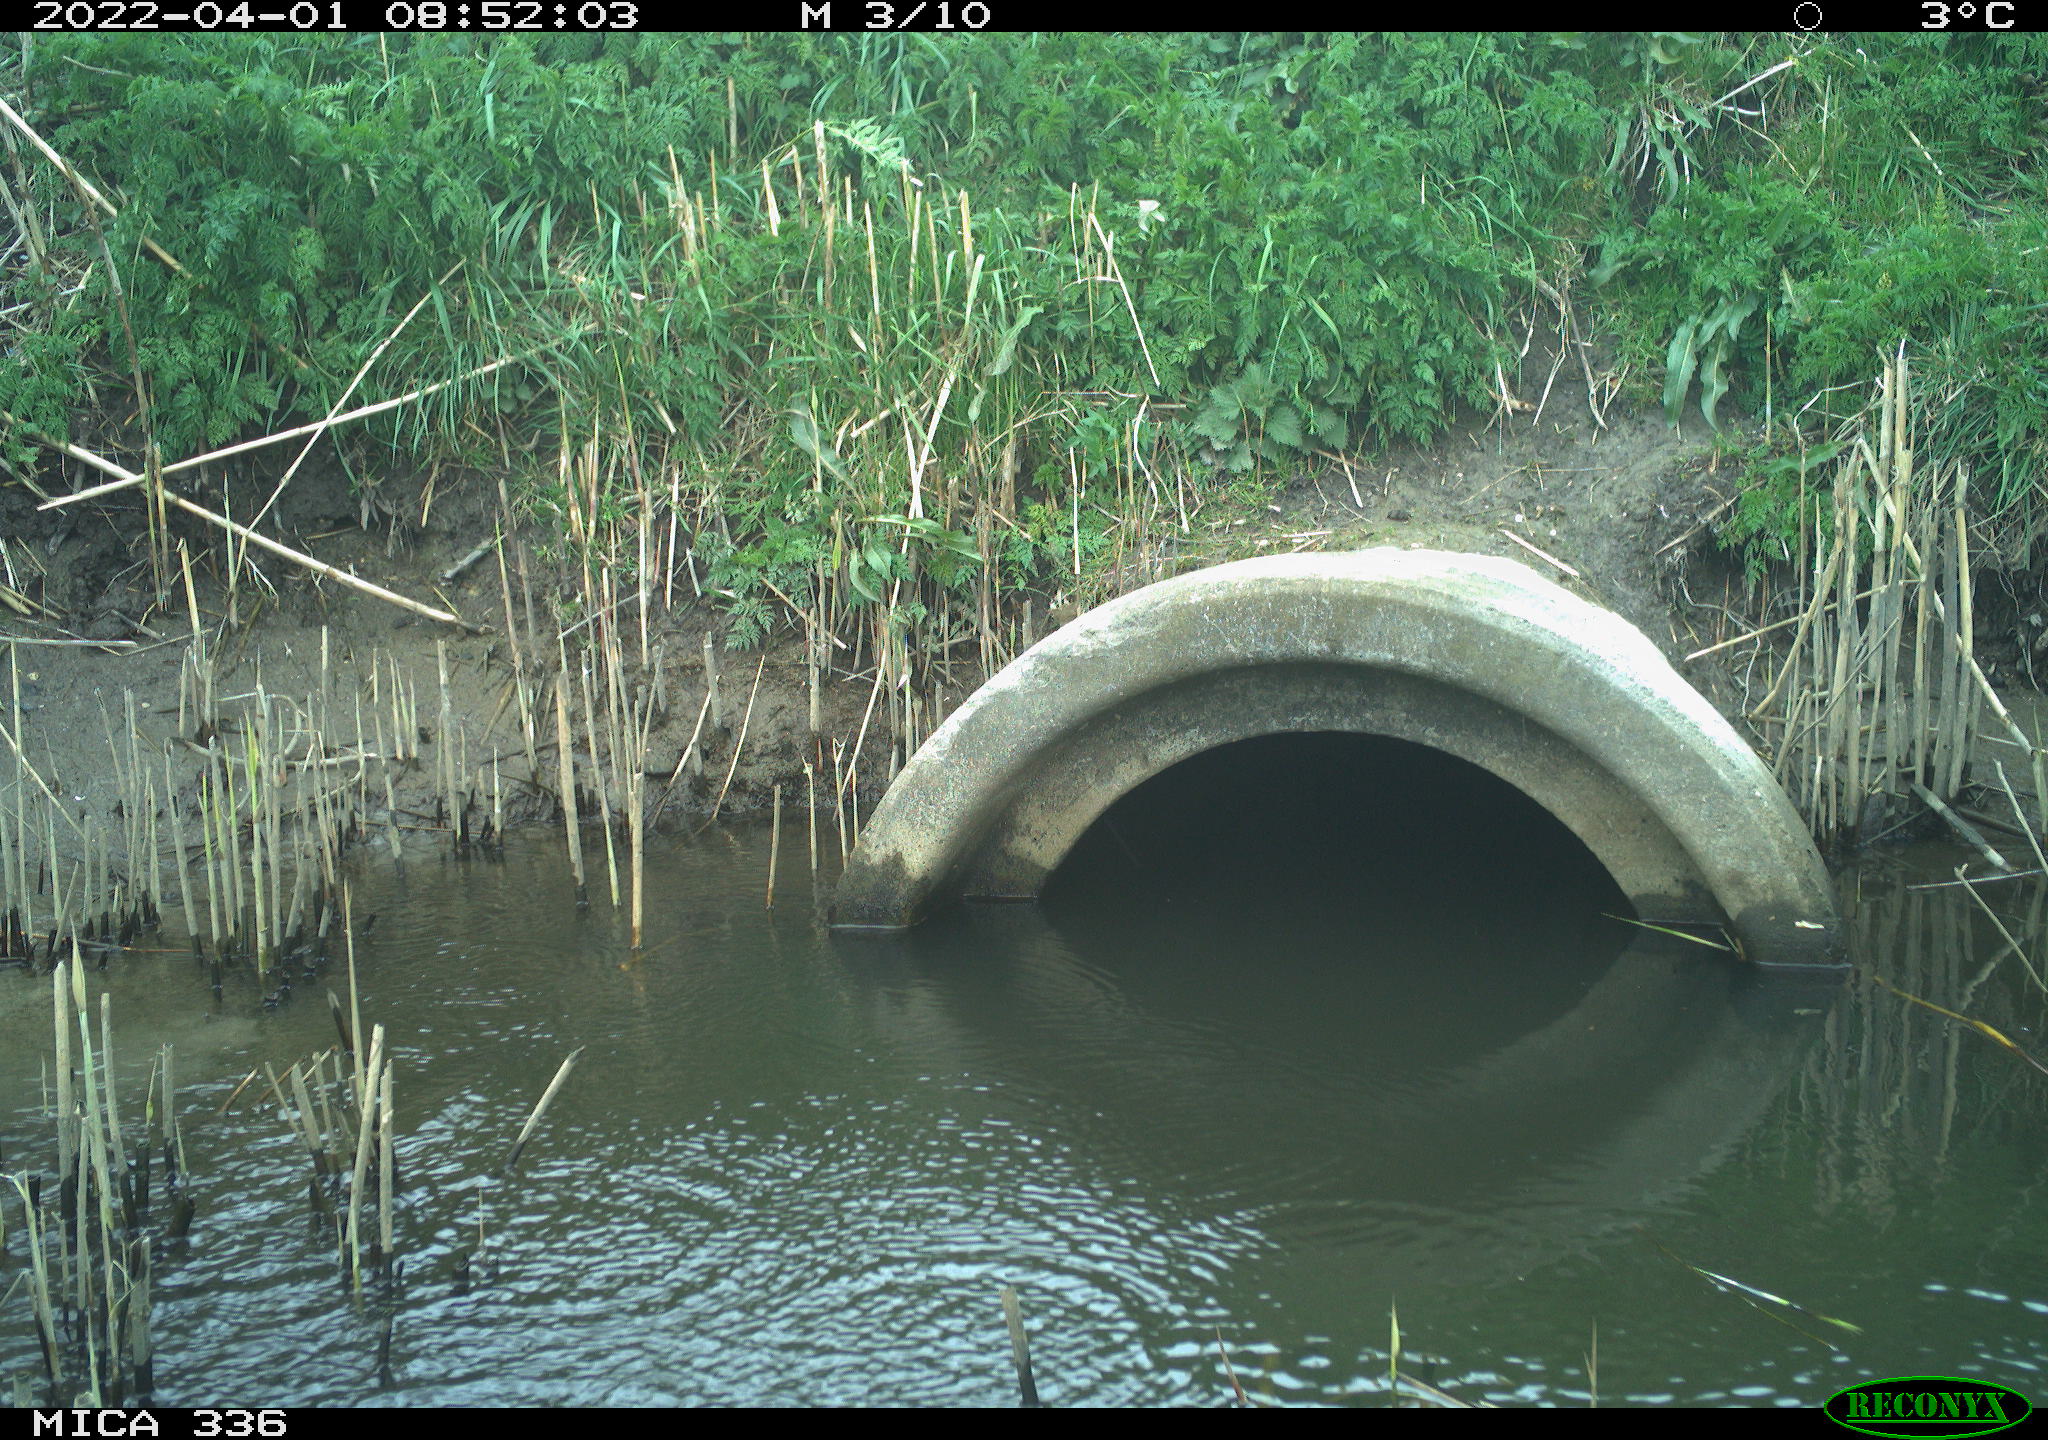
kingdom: Animalia
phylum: Chordata
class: Aves
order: Pelecaniformes
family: Ardeidae
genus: Ardea
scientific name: Ardea cinerea
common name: Grey heron
